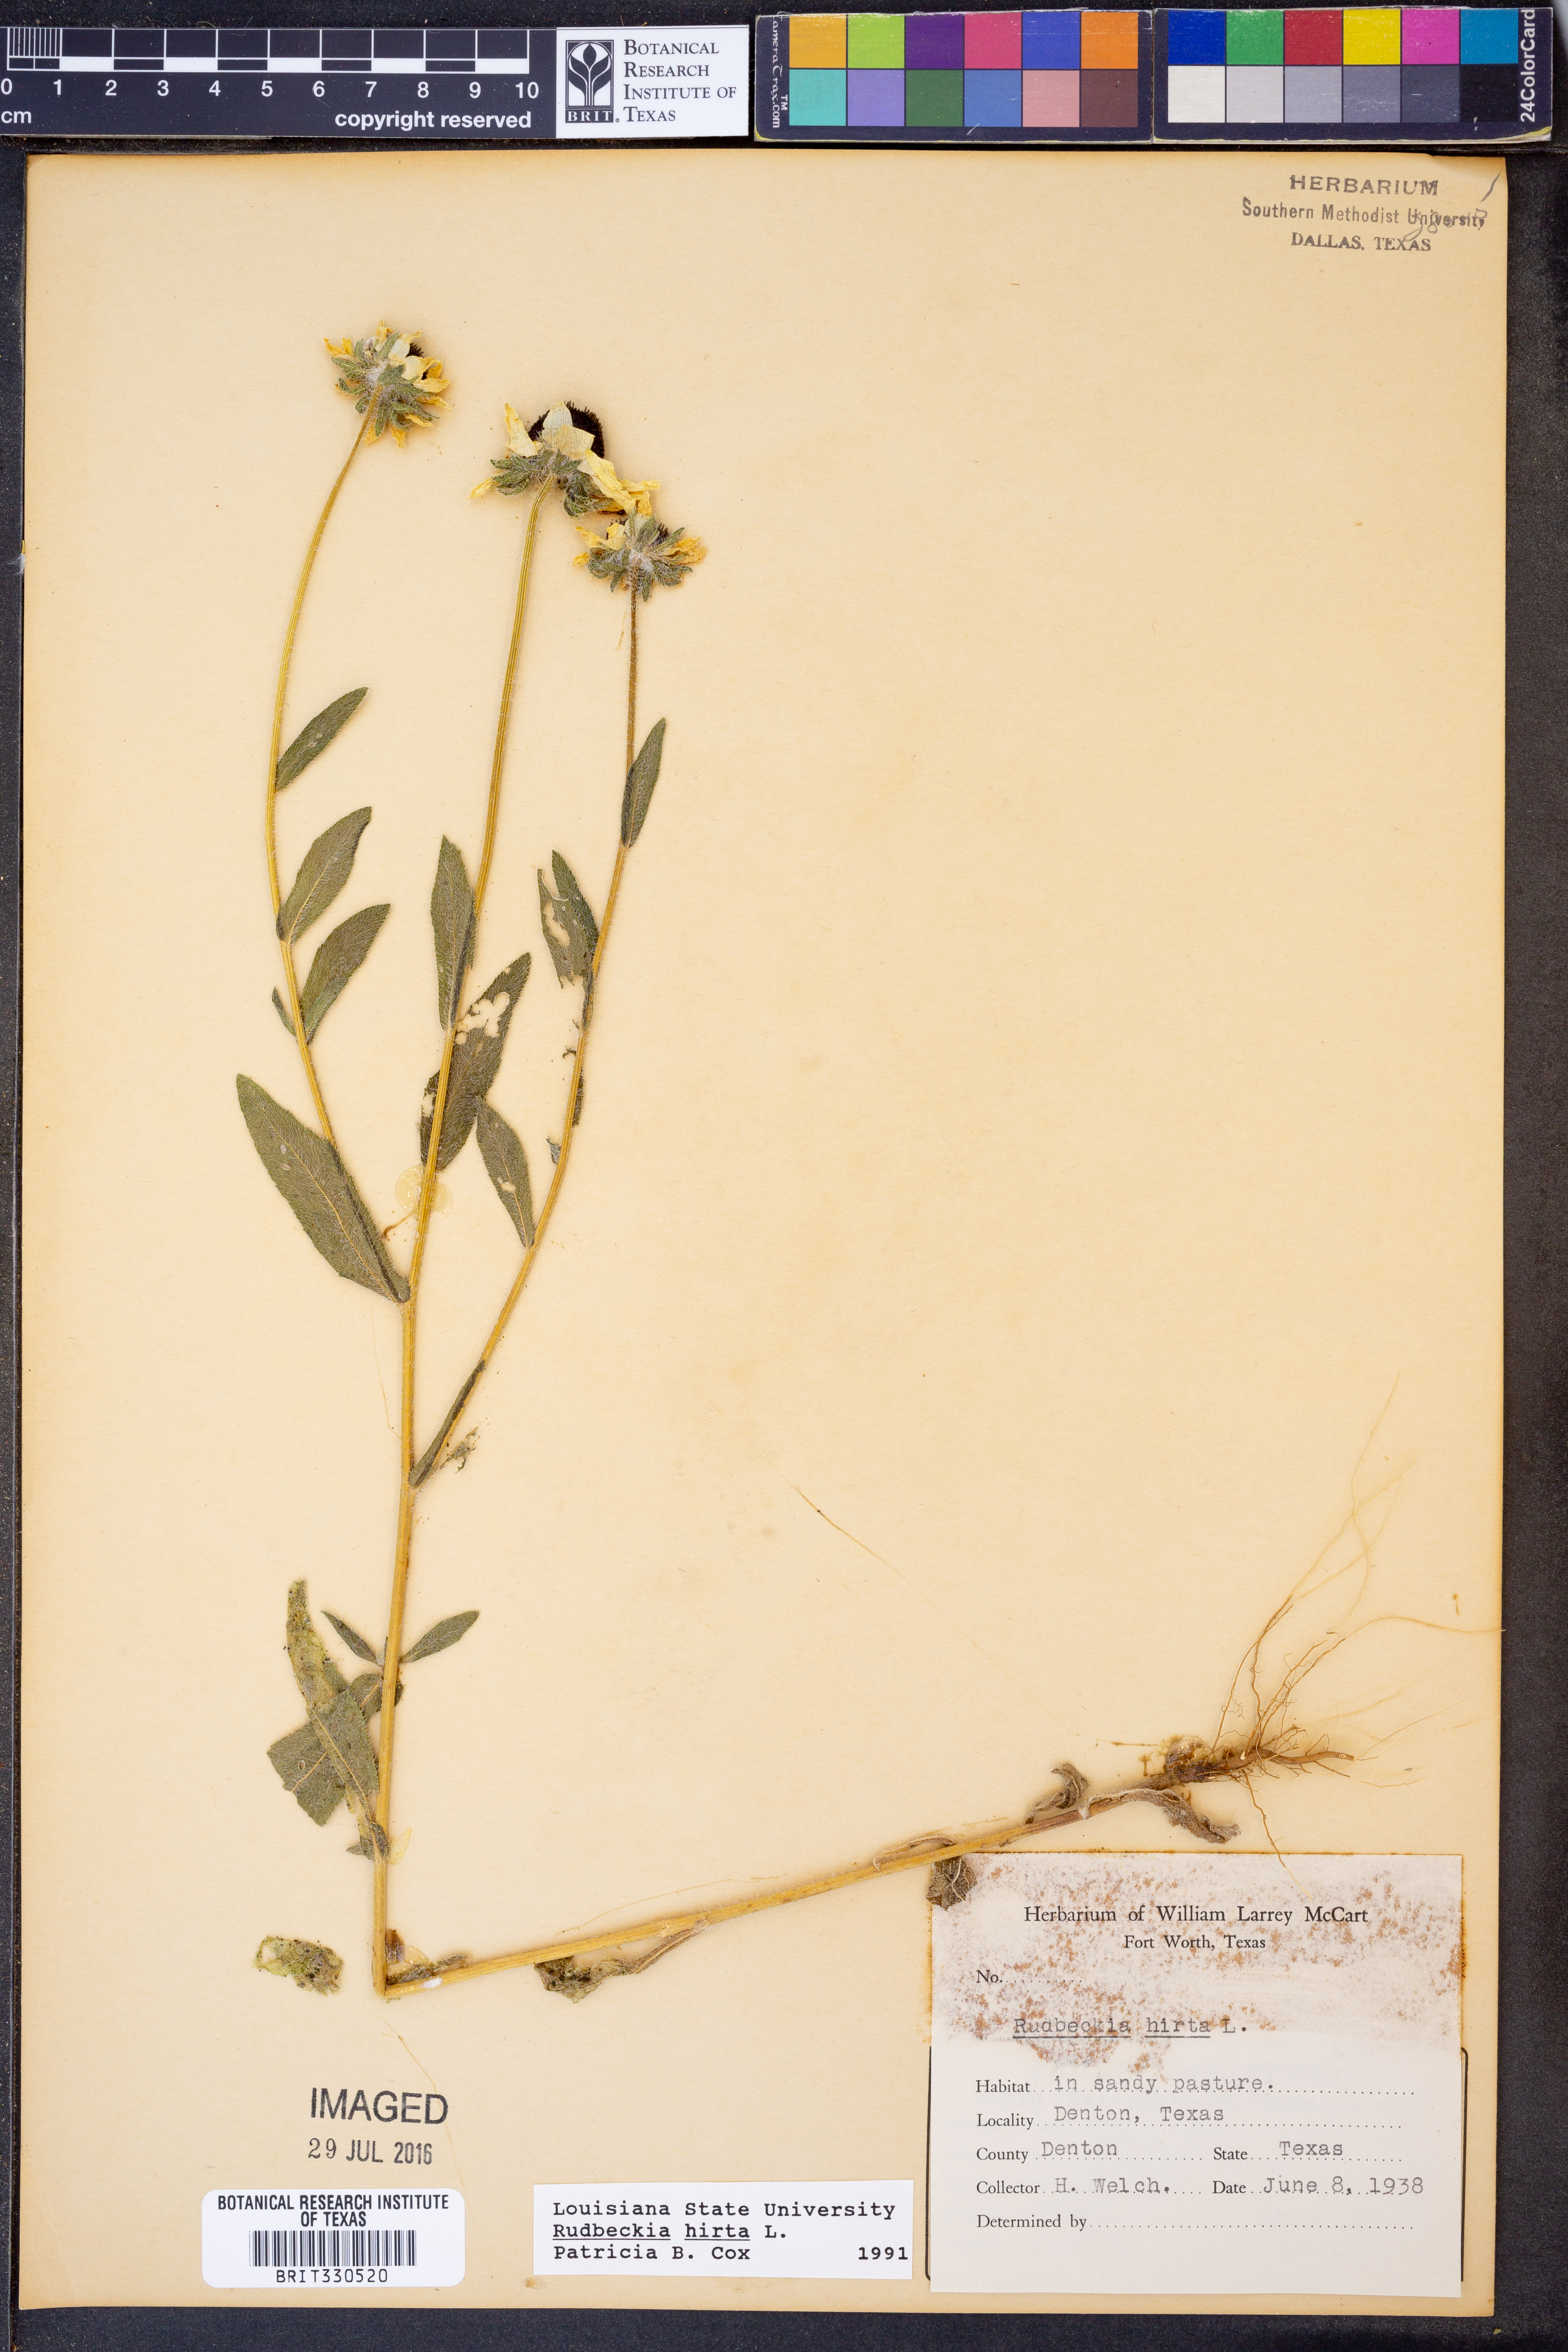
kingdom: Plantae
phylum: Tracheophyta
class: Magnoliopsida
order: Asterales
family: Asteraceae
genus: Rudbeckia
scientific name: Rudbeckia hirta
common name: Black-eyed-susan
